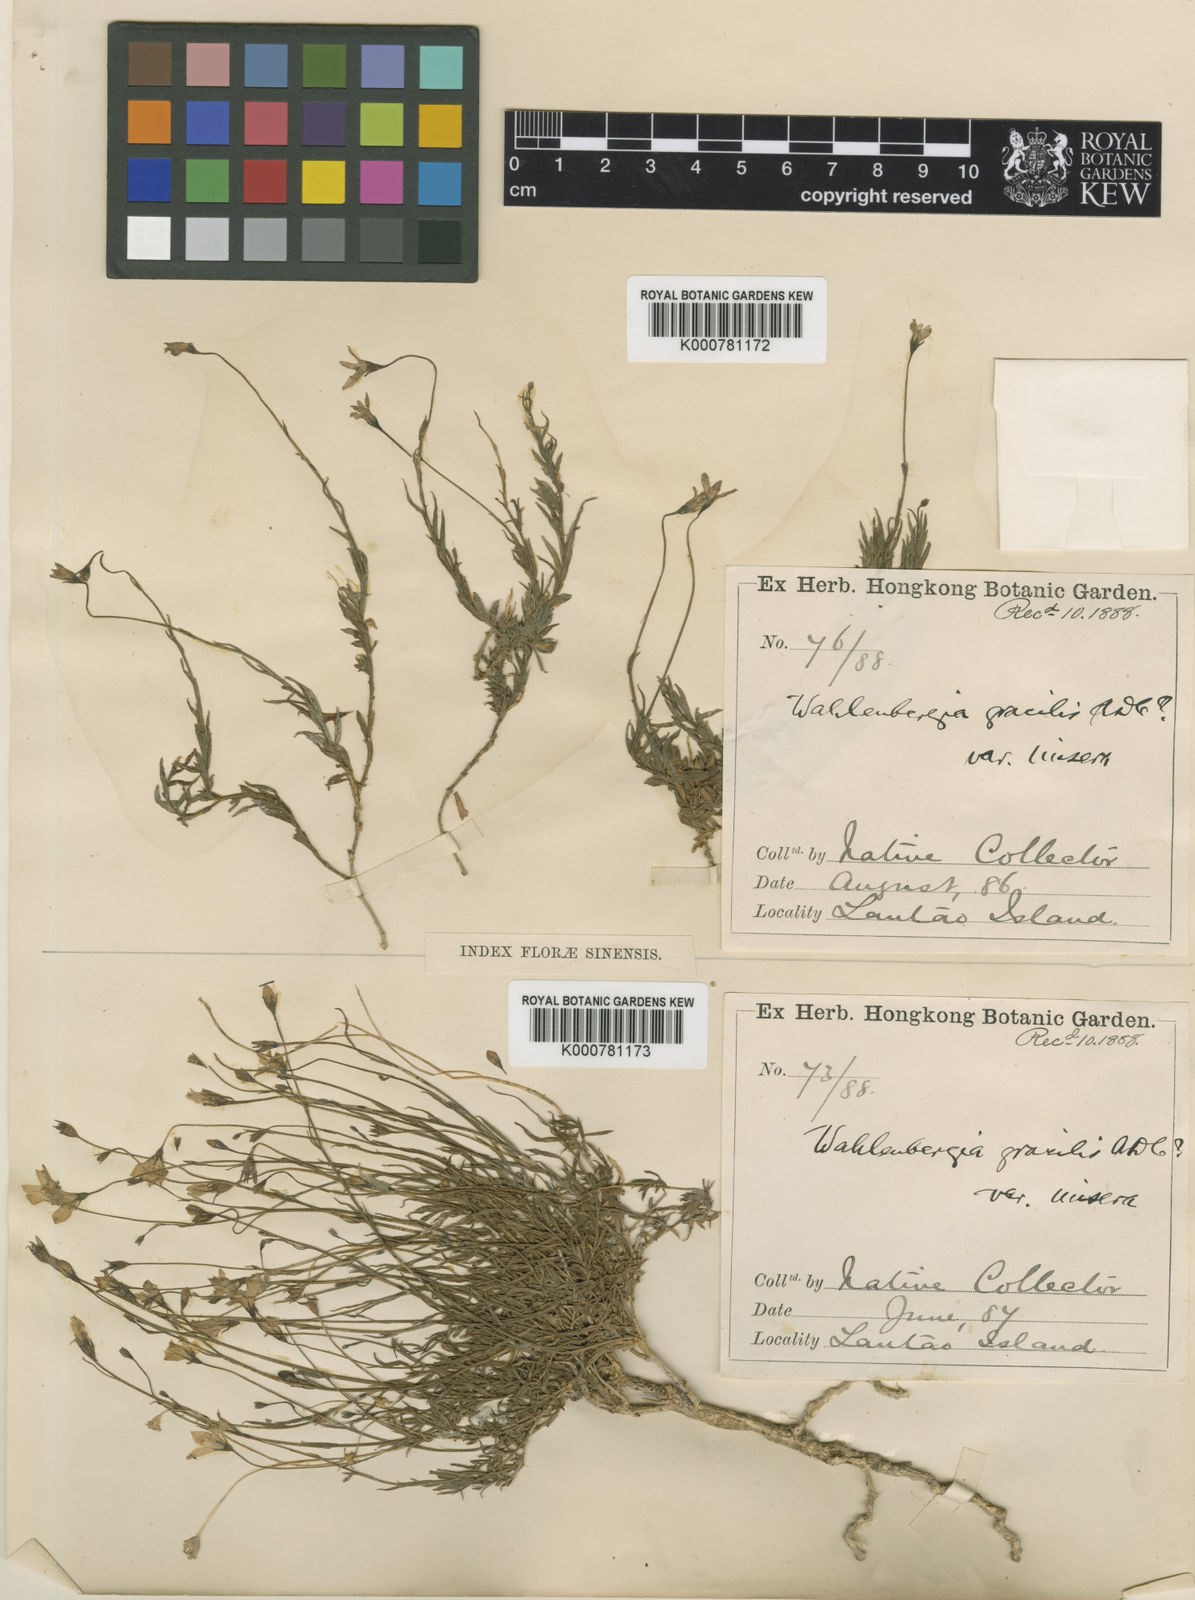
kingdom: Plantae
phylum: Tracheophyta
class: Magnoliopsida
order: Asterales
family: Campanulaceae
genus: Wahlenbergia
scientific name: Wahlenbergia marginata
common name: Southern rockbell
